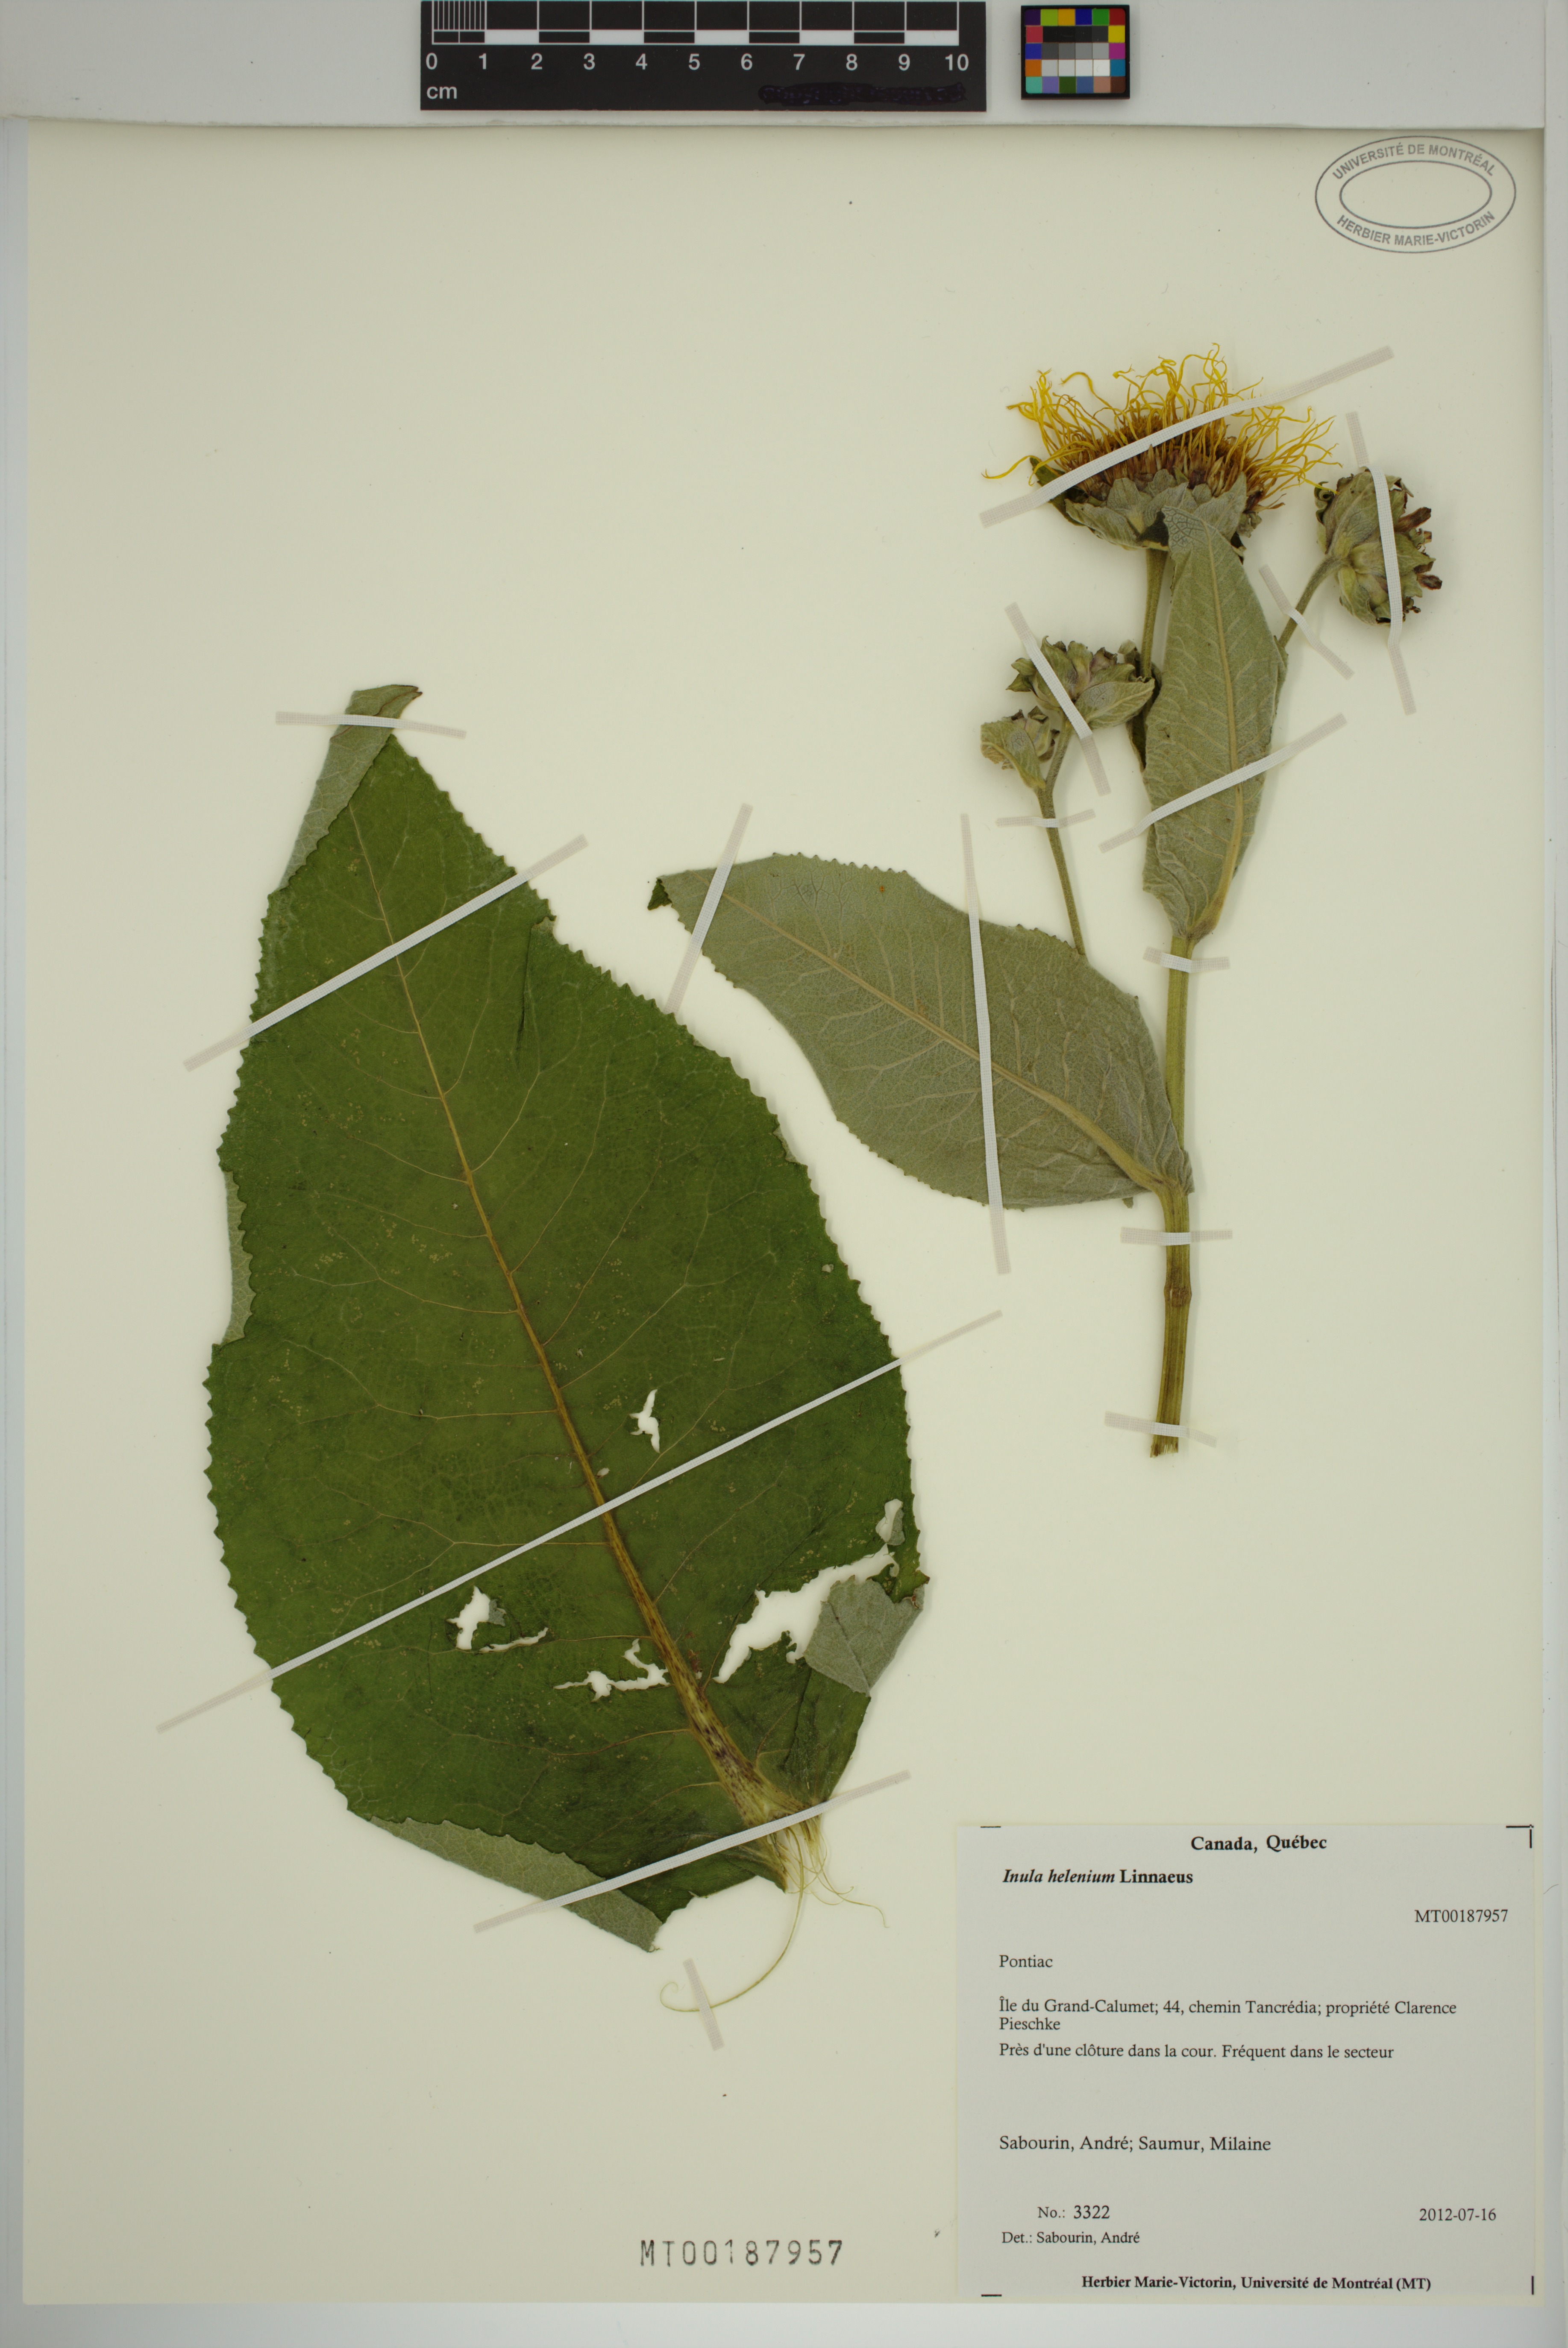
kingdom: Plantae
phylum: Tracheophyta
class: Magnoliopsida
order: Asterales
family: Asteraceae
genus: Inula
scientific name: Inula helenium
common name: Elecampane
